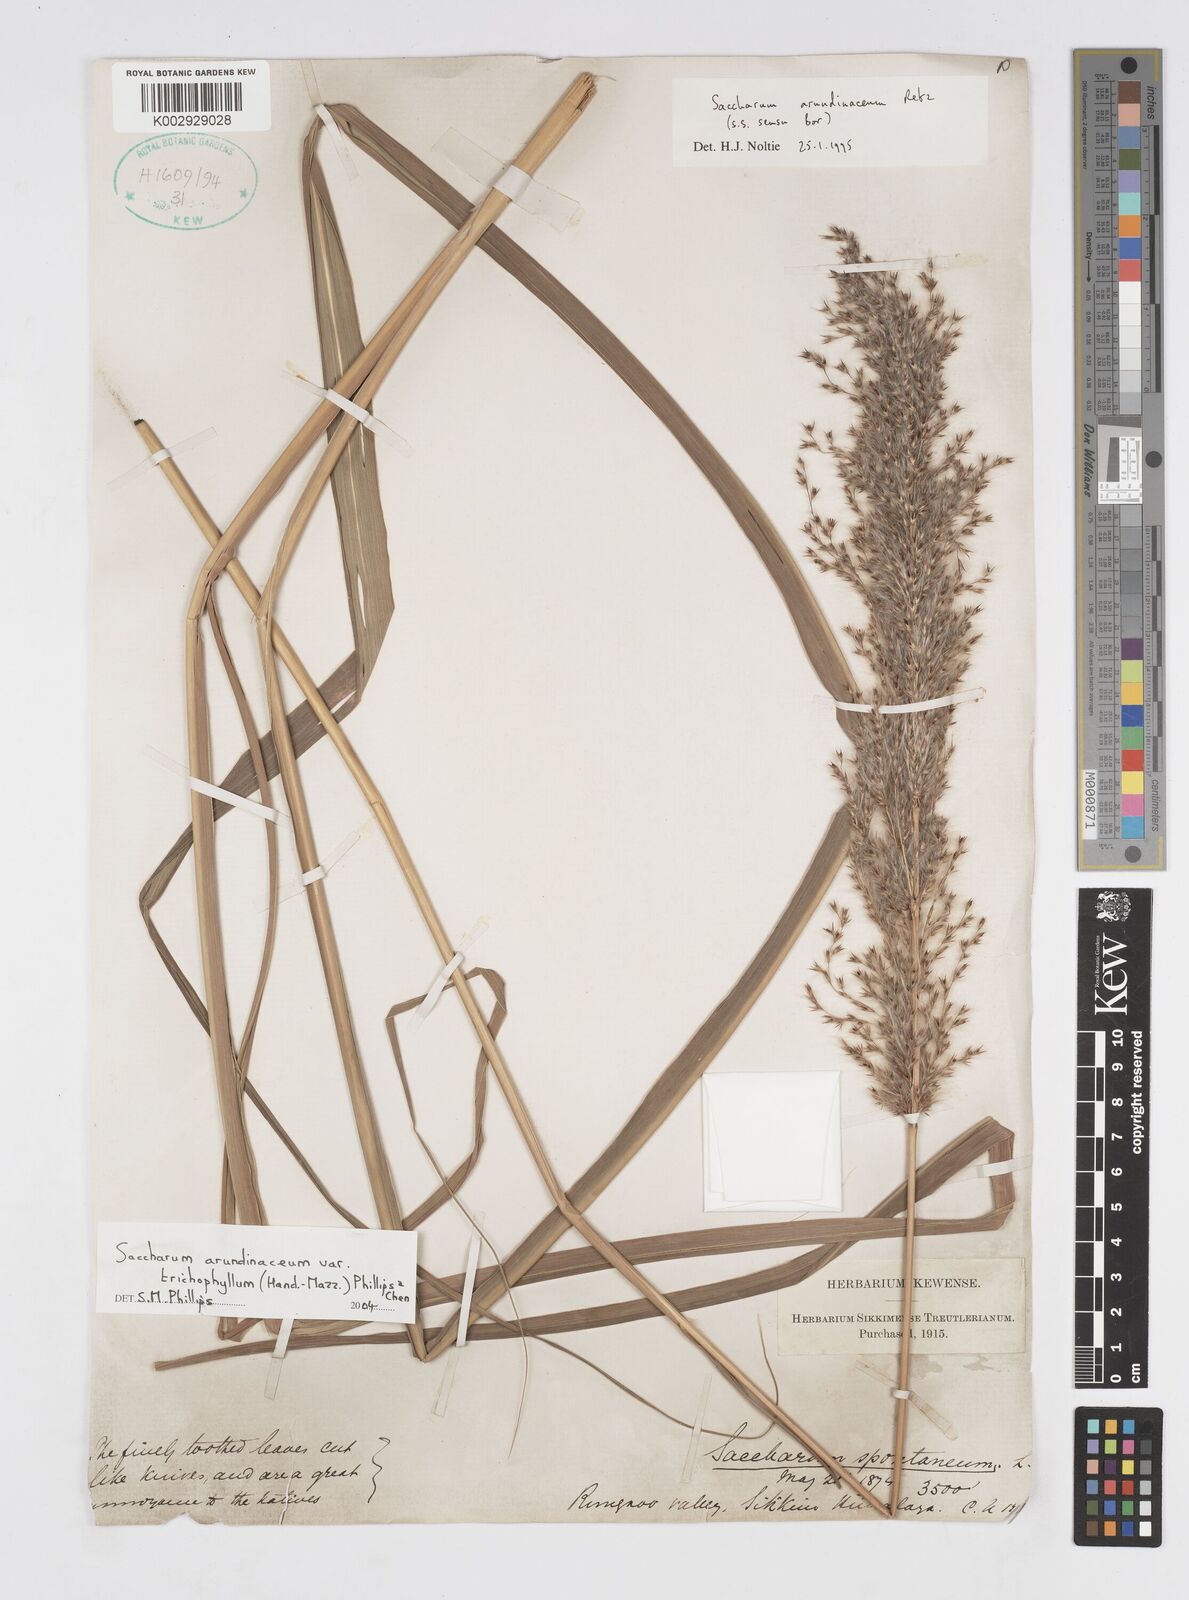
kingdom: Plantae
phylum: Tracheophyta
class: Liliopsida
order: Poales
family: Poaceae
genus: Tripidium
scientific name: Tripidium arundinaceum
